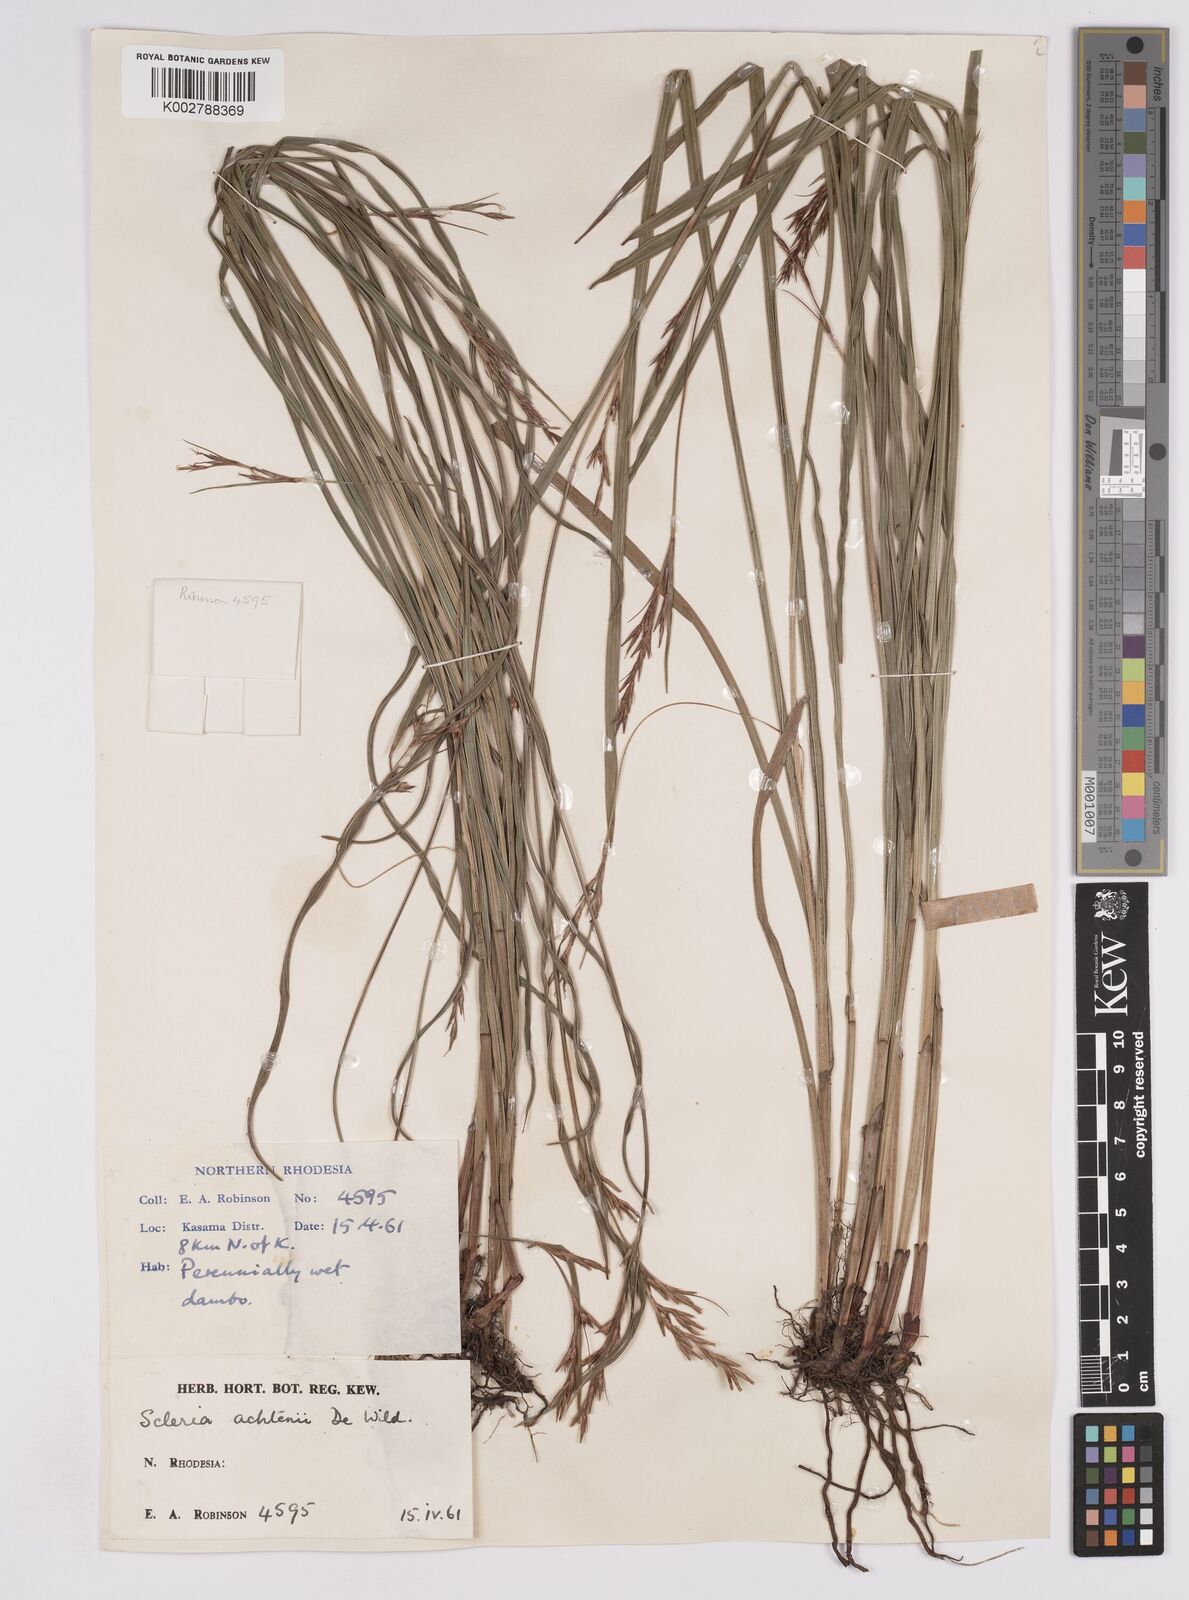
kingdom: Plantae
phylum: Tracheophyta
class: Liliopsida
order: Poales
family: Cyperaceae
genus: Scleria
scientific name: Scleria achtenii
